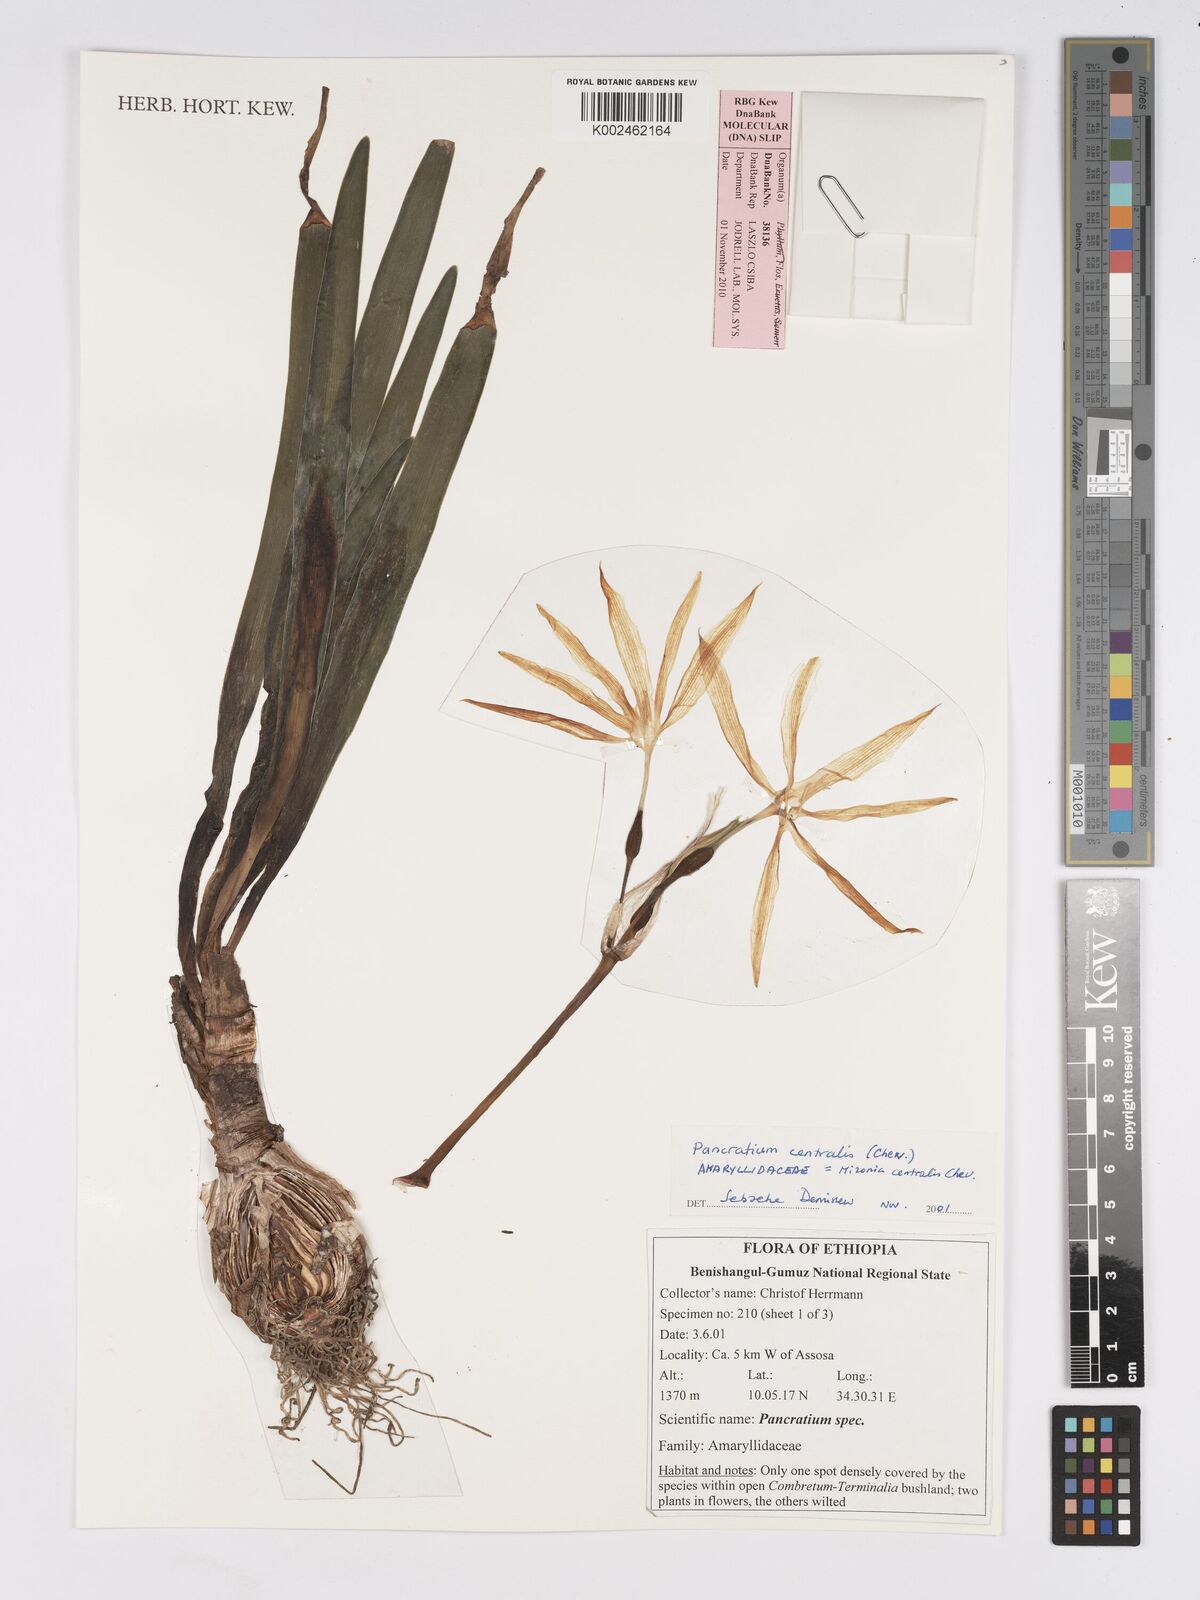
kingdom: Plantae
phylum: Tracheophyta
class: Liliopsida
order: Asparagales
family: Amaryllidaceae
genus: Pancratium
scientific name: Pancratium
